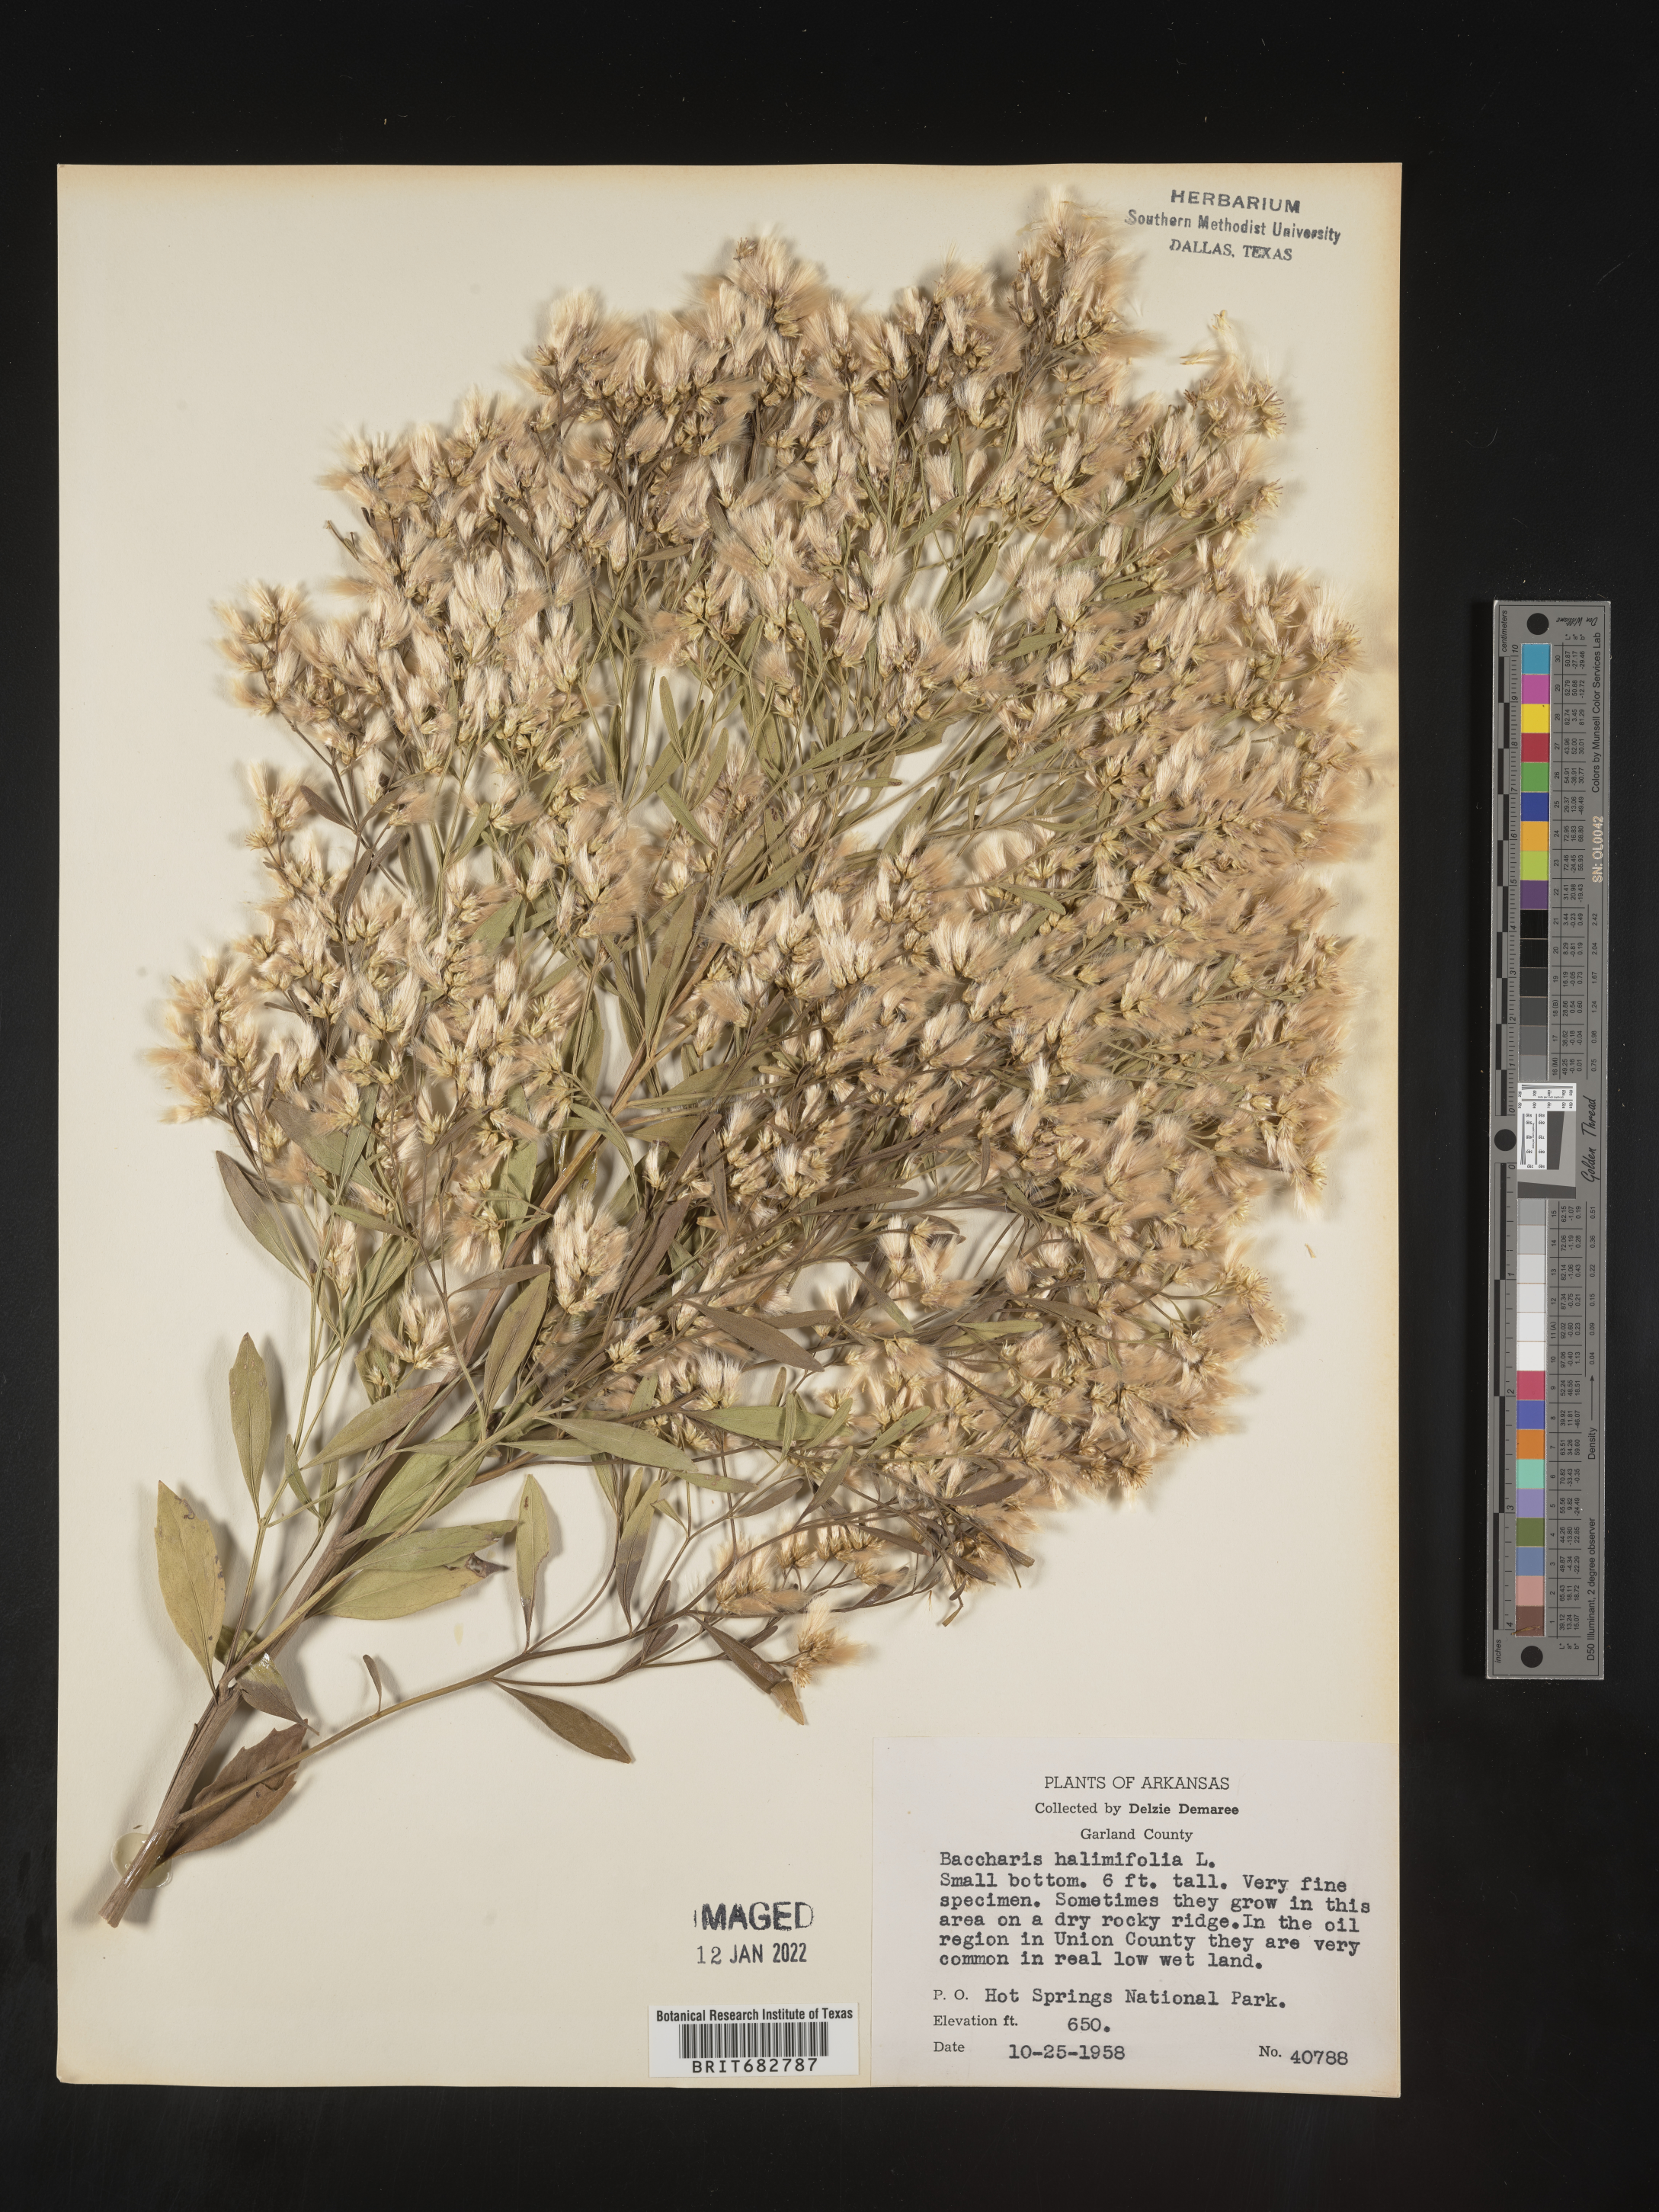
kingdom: Plantae
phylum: Tracheophyta
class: Magnoliopsida
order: Asterales
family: Asteraceae
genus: Nidorella
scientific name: Nidorella ivifolia
